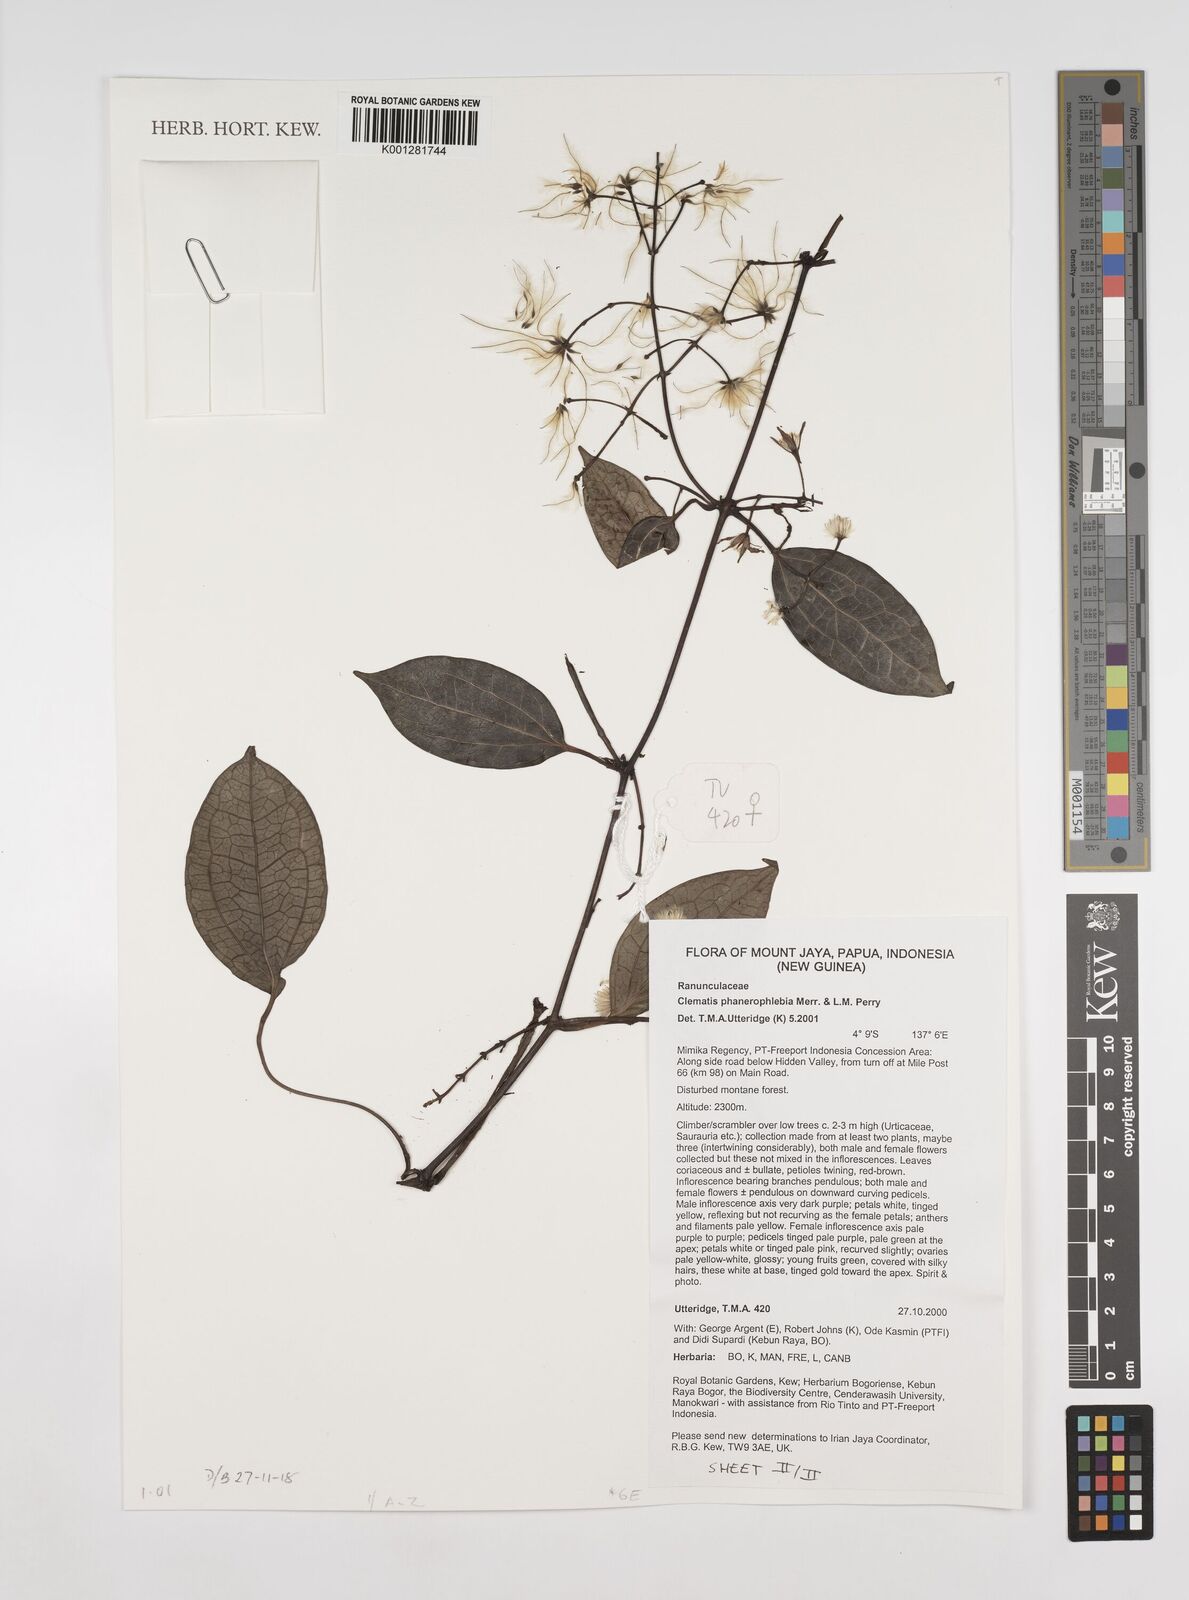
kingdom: Plantae
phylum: Tracheophyta
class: Magnoliopsida
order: Ranunculales
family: Ranunculaceae
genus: Clematis
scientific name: Clematis phanerophlebia
